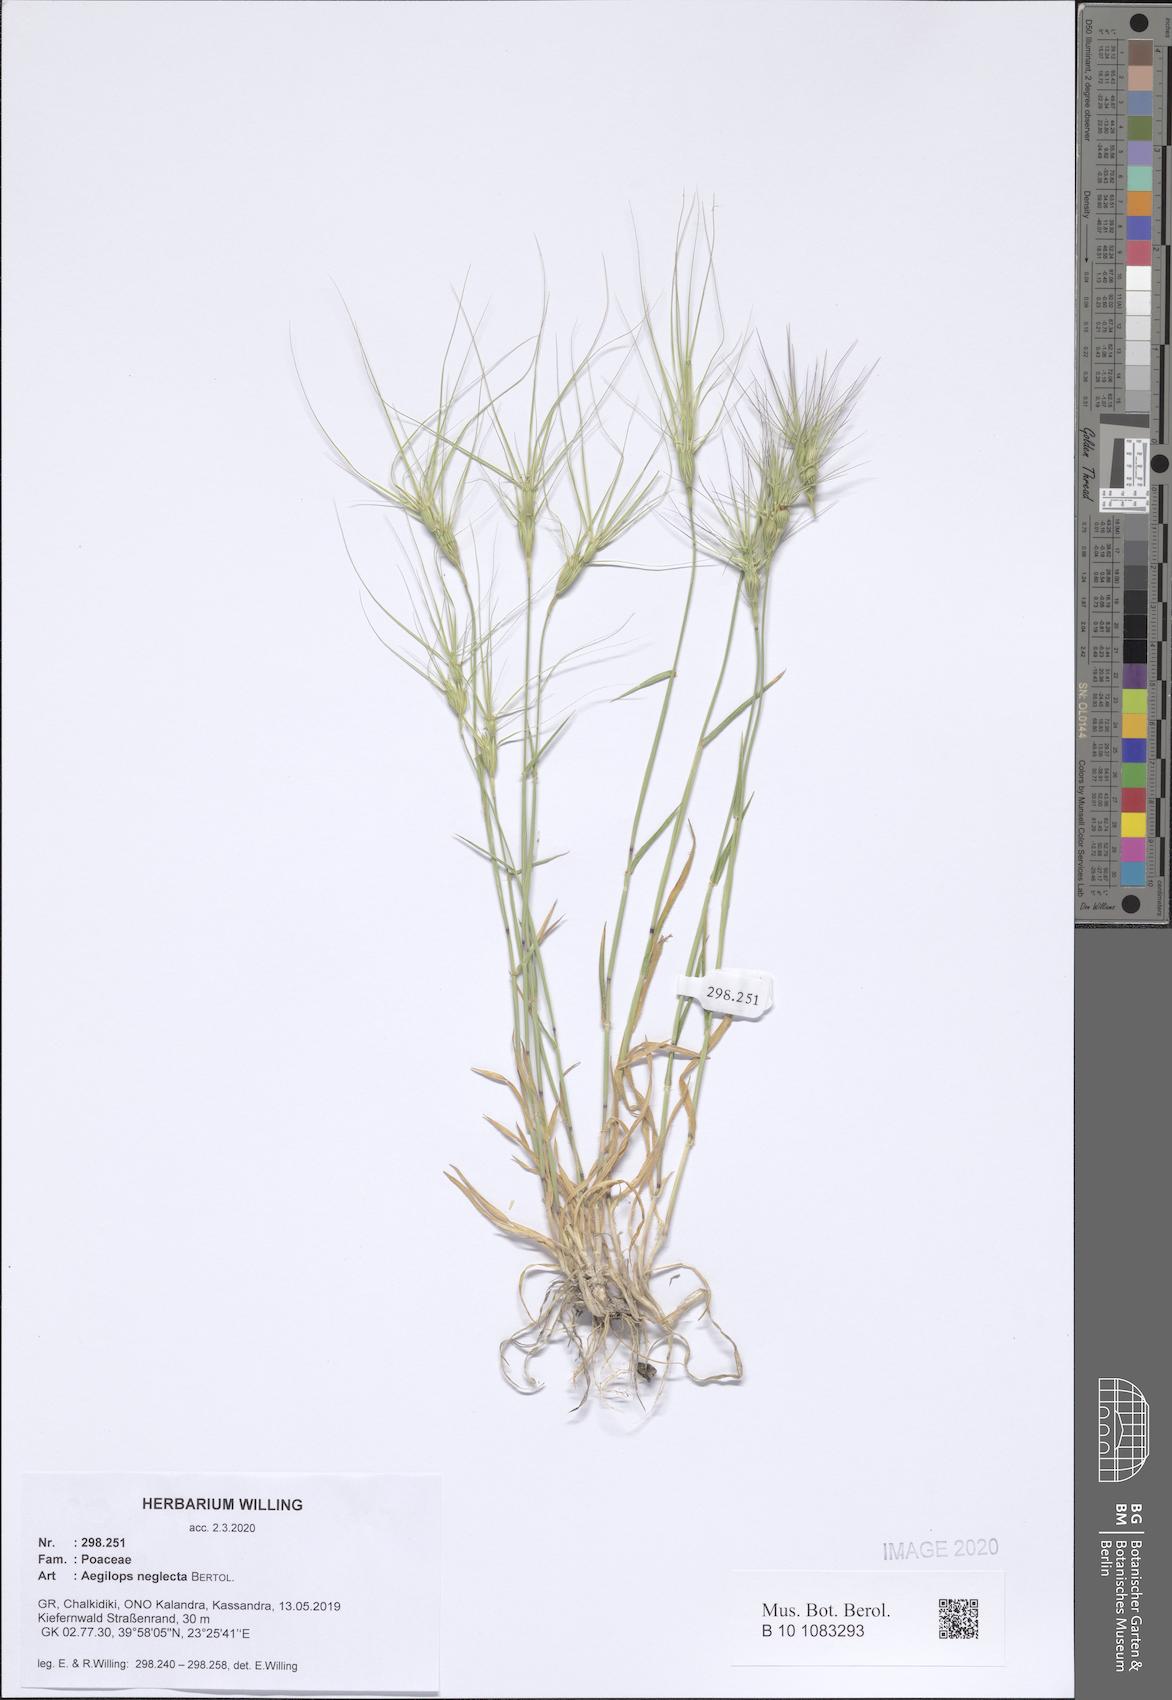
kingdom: Plantae
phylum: Tracheophyta
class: Liliopsida
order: Poales
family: Poaceae
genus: Aegilops
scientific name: Aegilops neglecta
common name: Three-awn goat grass
